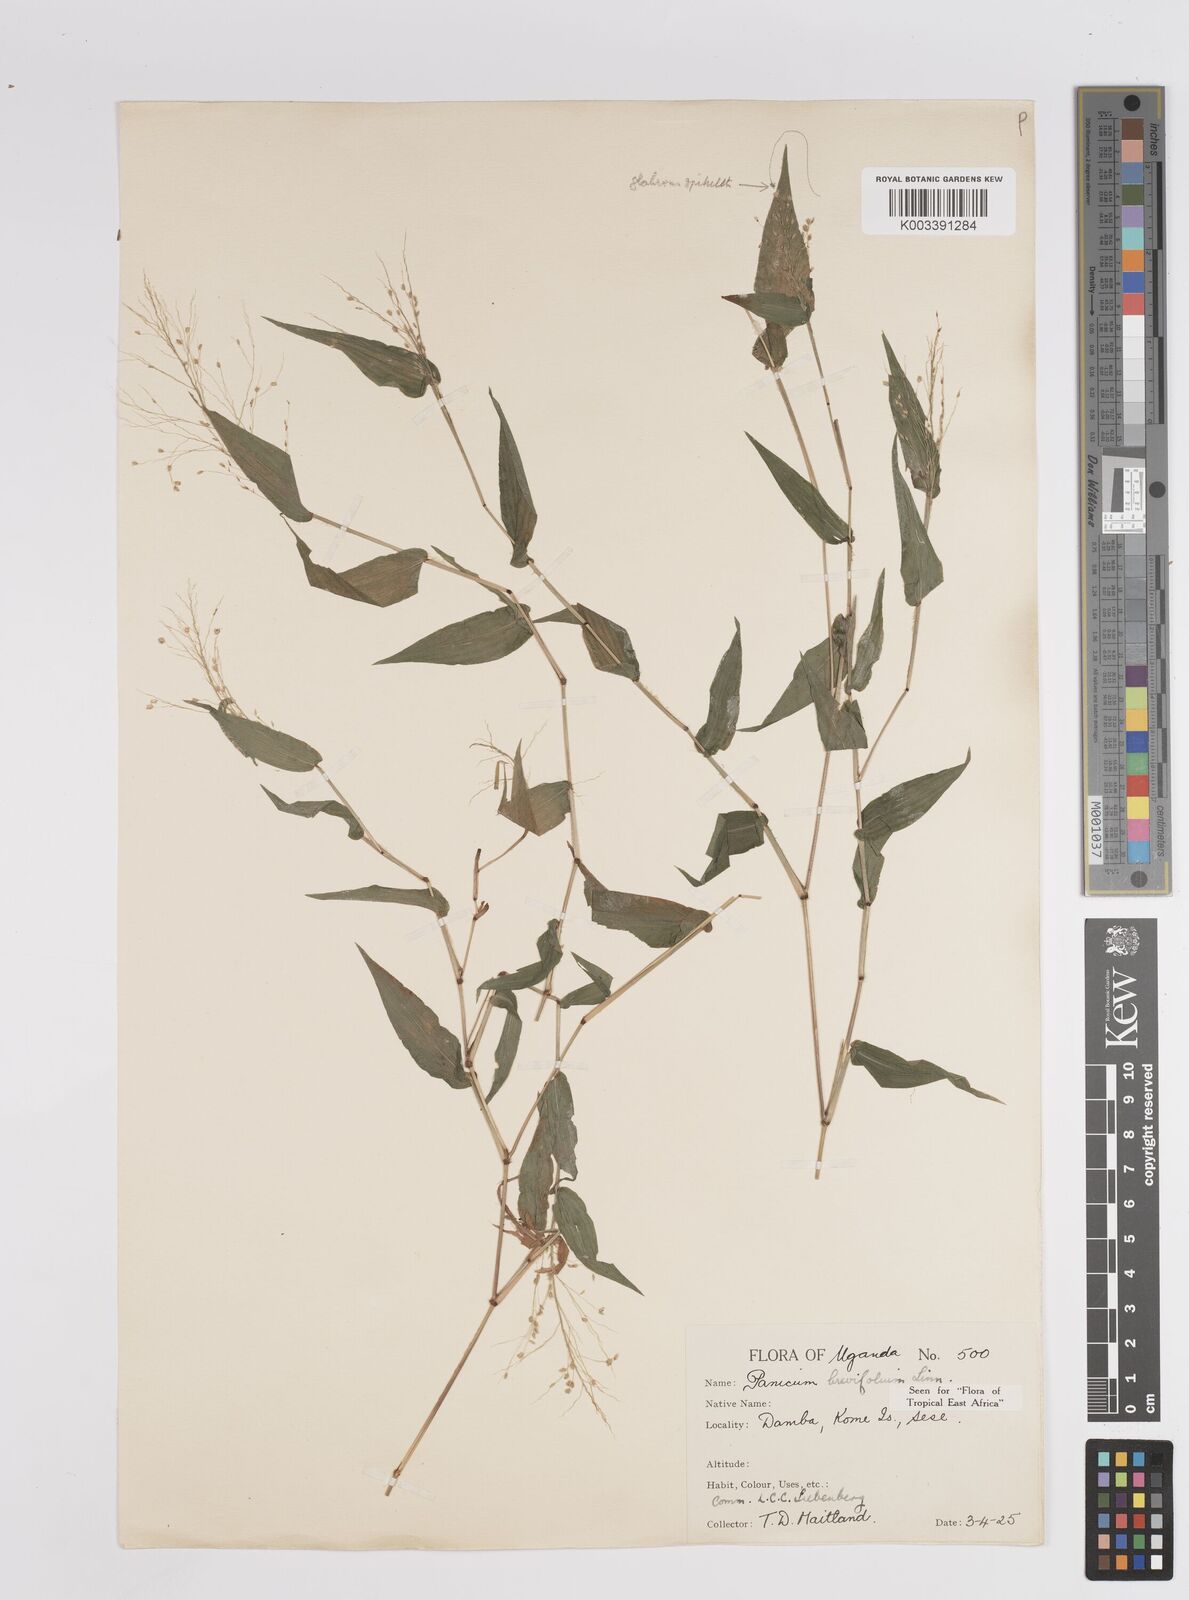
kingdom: Plantae
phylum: Tracheophyta
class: Liliopsida
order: Poales
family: Poaceae
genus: Panicum
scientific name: Panicum brevifolium
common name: Shortleaf panic grass
